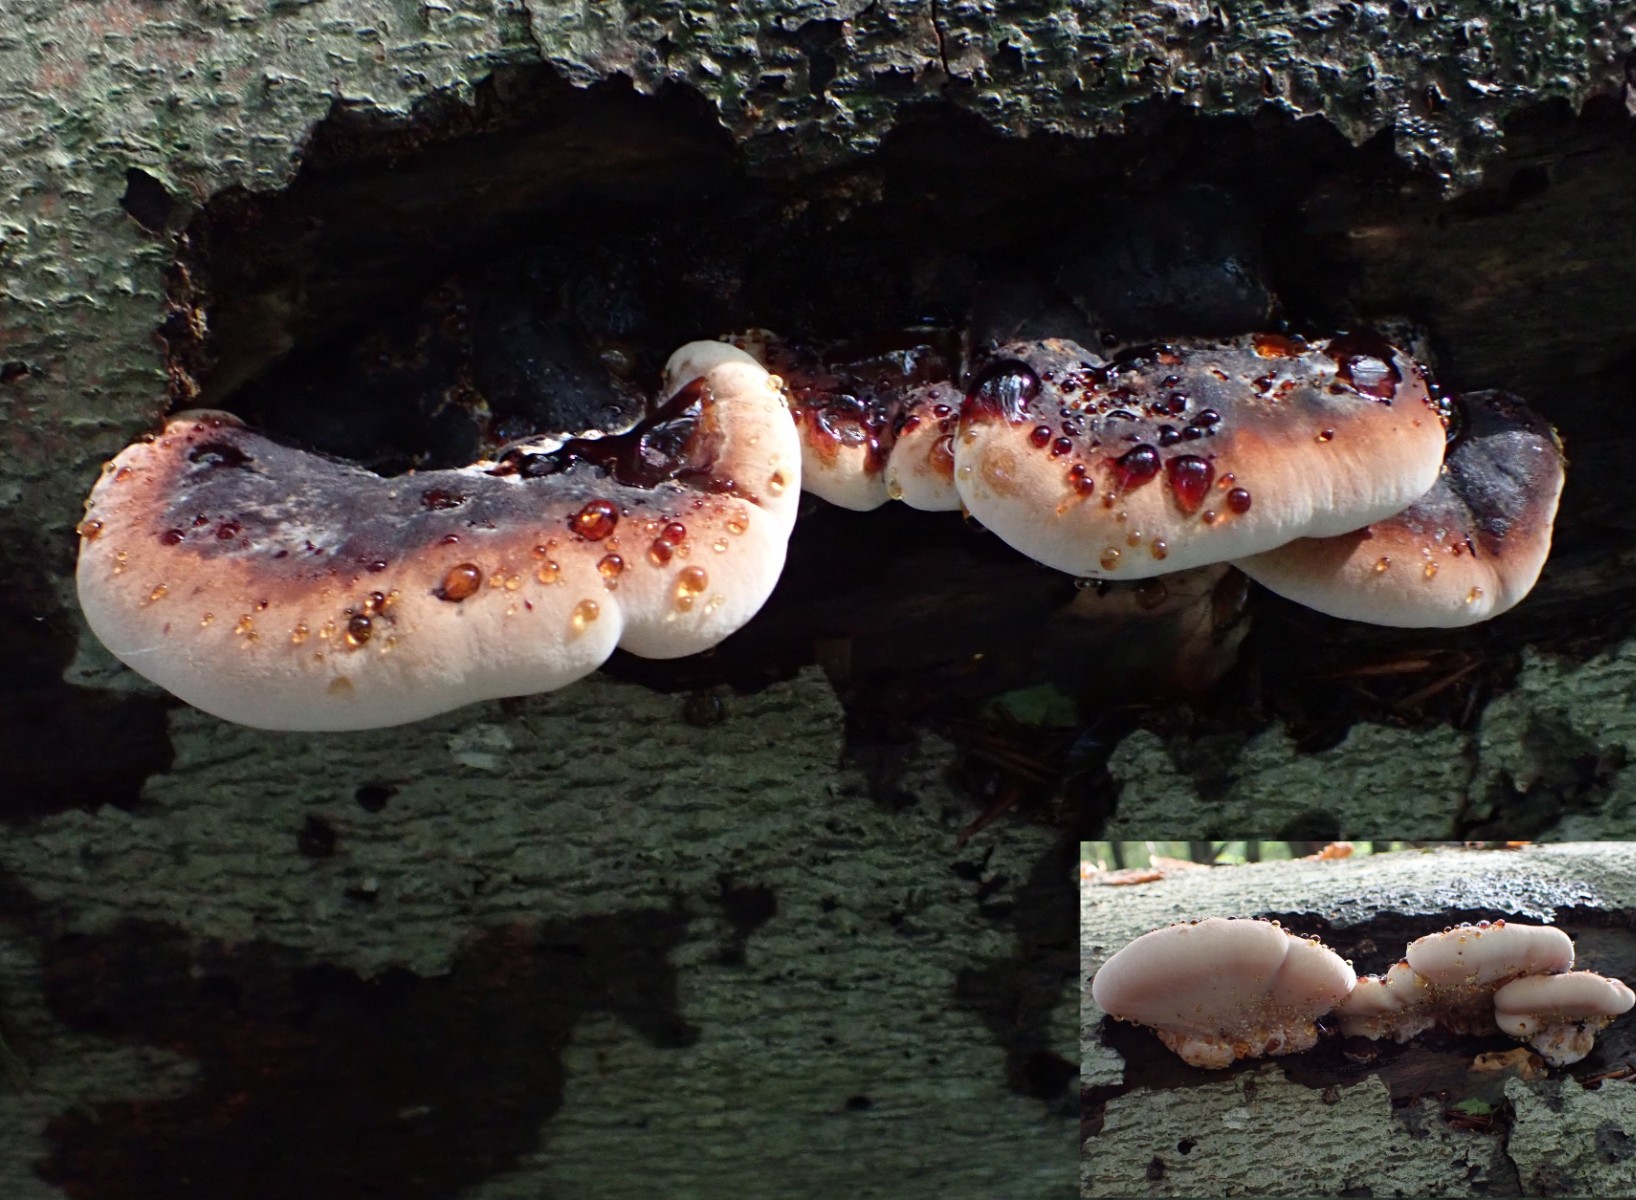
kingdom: Fungi
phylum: Basidiomycota
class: Agaricomycetes
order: Polyporales
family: Ischnodermataceae
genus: Ischnoderma
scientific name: Ischnoderma resinosum
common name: løv-tjæreporesvamp
